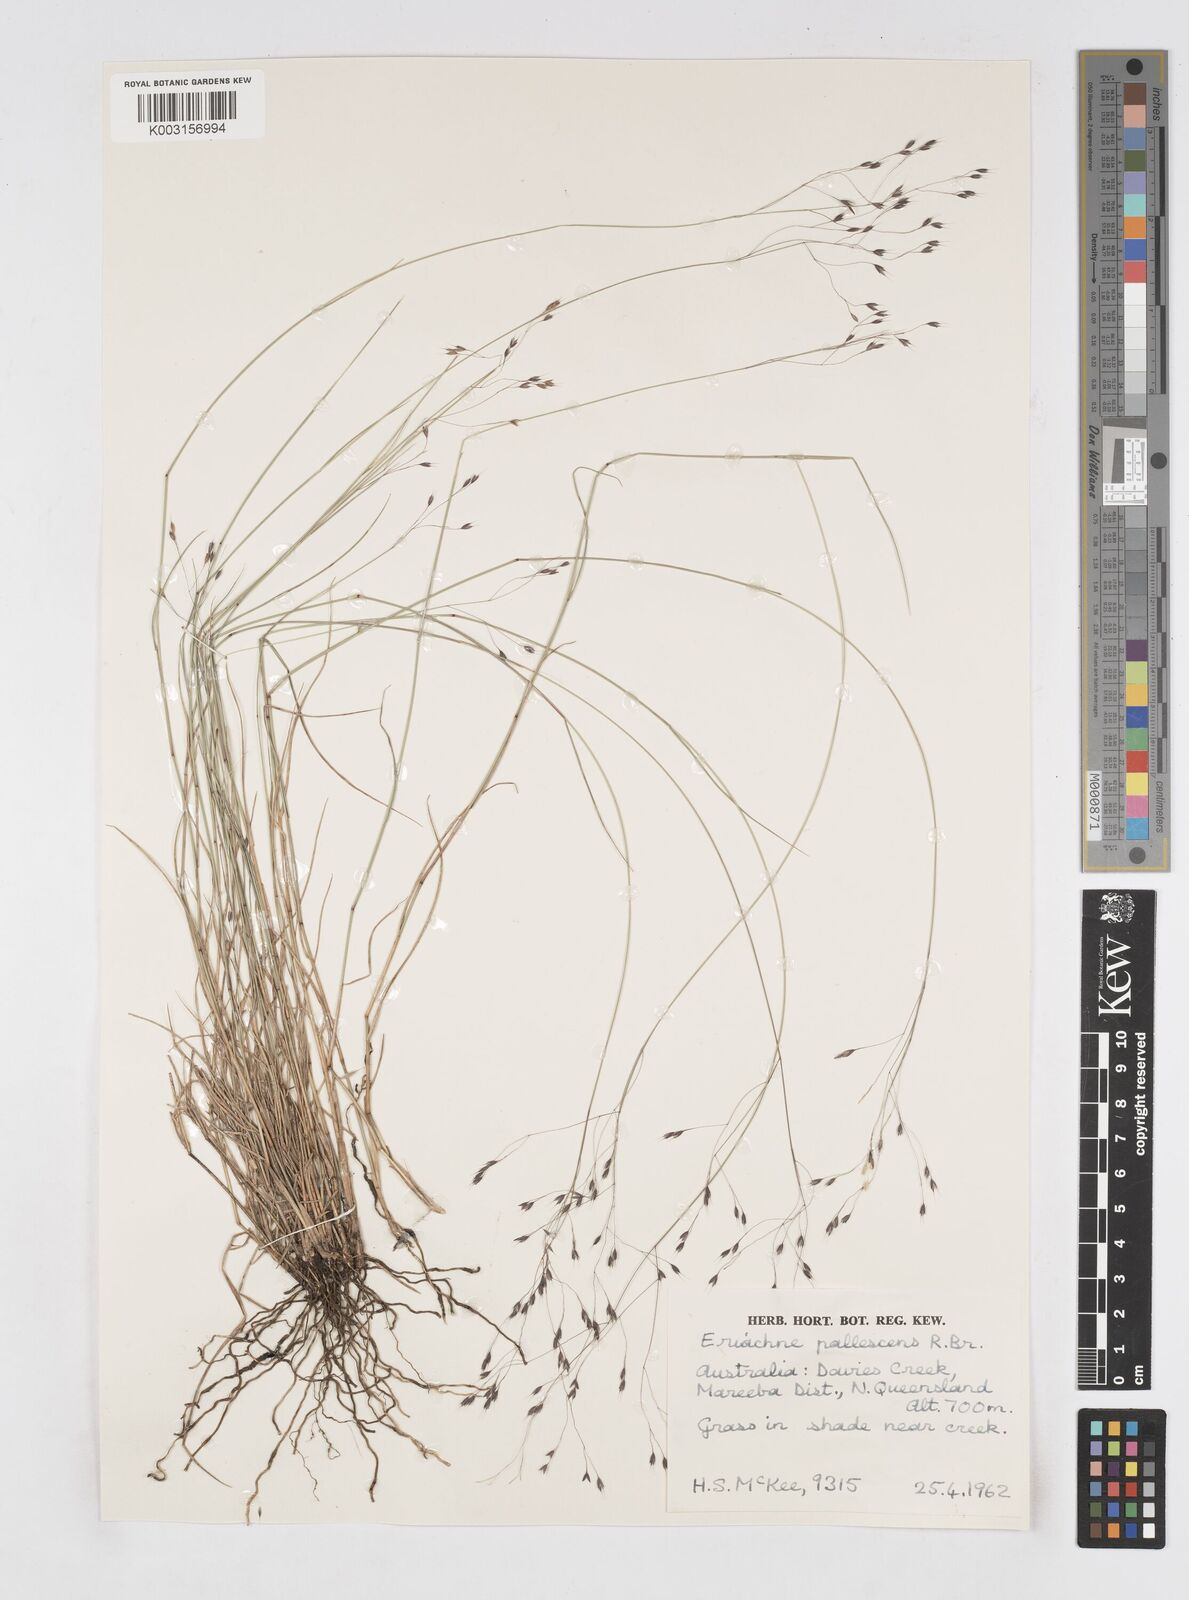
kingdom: Plantae
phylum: Tracheophyta
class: Liliopsida
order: Poales
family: Poaceae
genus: Eriachne
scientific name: Eriachne pallescens
